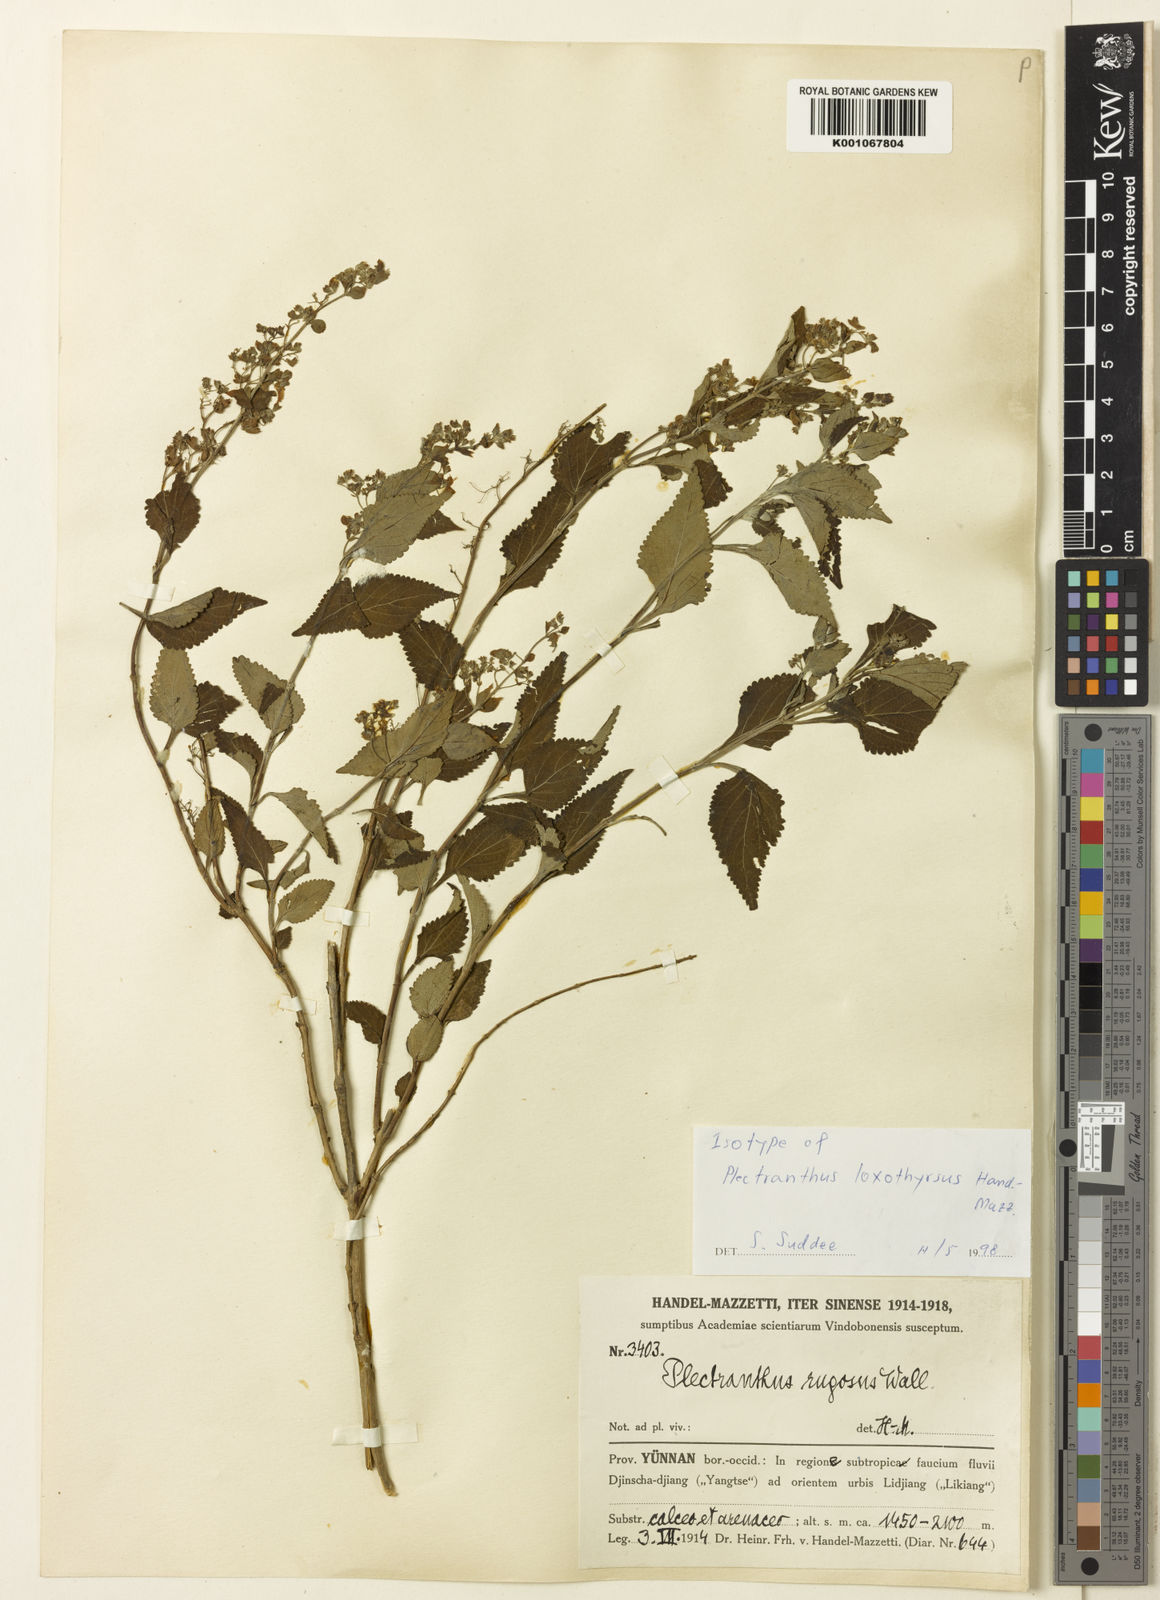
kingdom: Plantae
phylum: Tracheophyta
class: Magnoliopsida
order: Lamiales
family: Lamiaceae
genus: Isodon
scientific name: Isodon loxothyrsus
